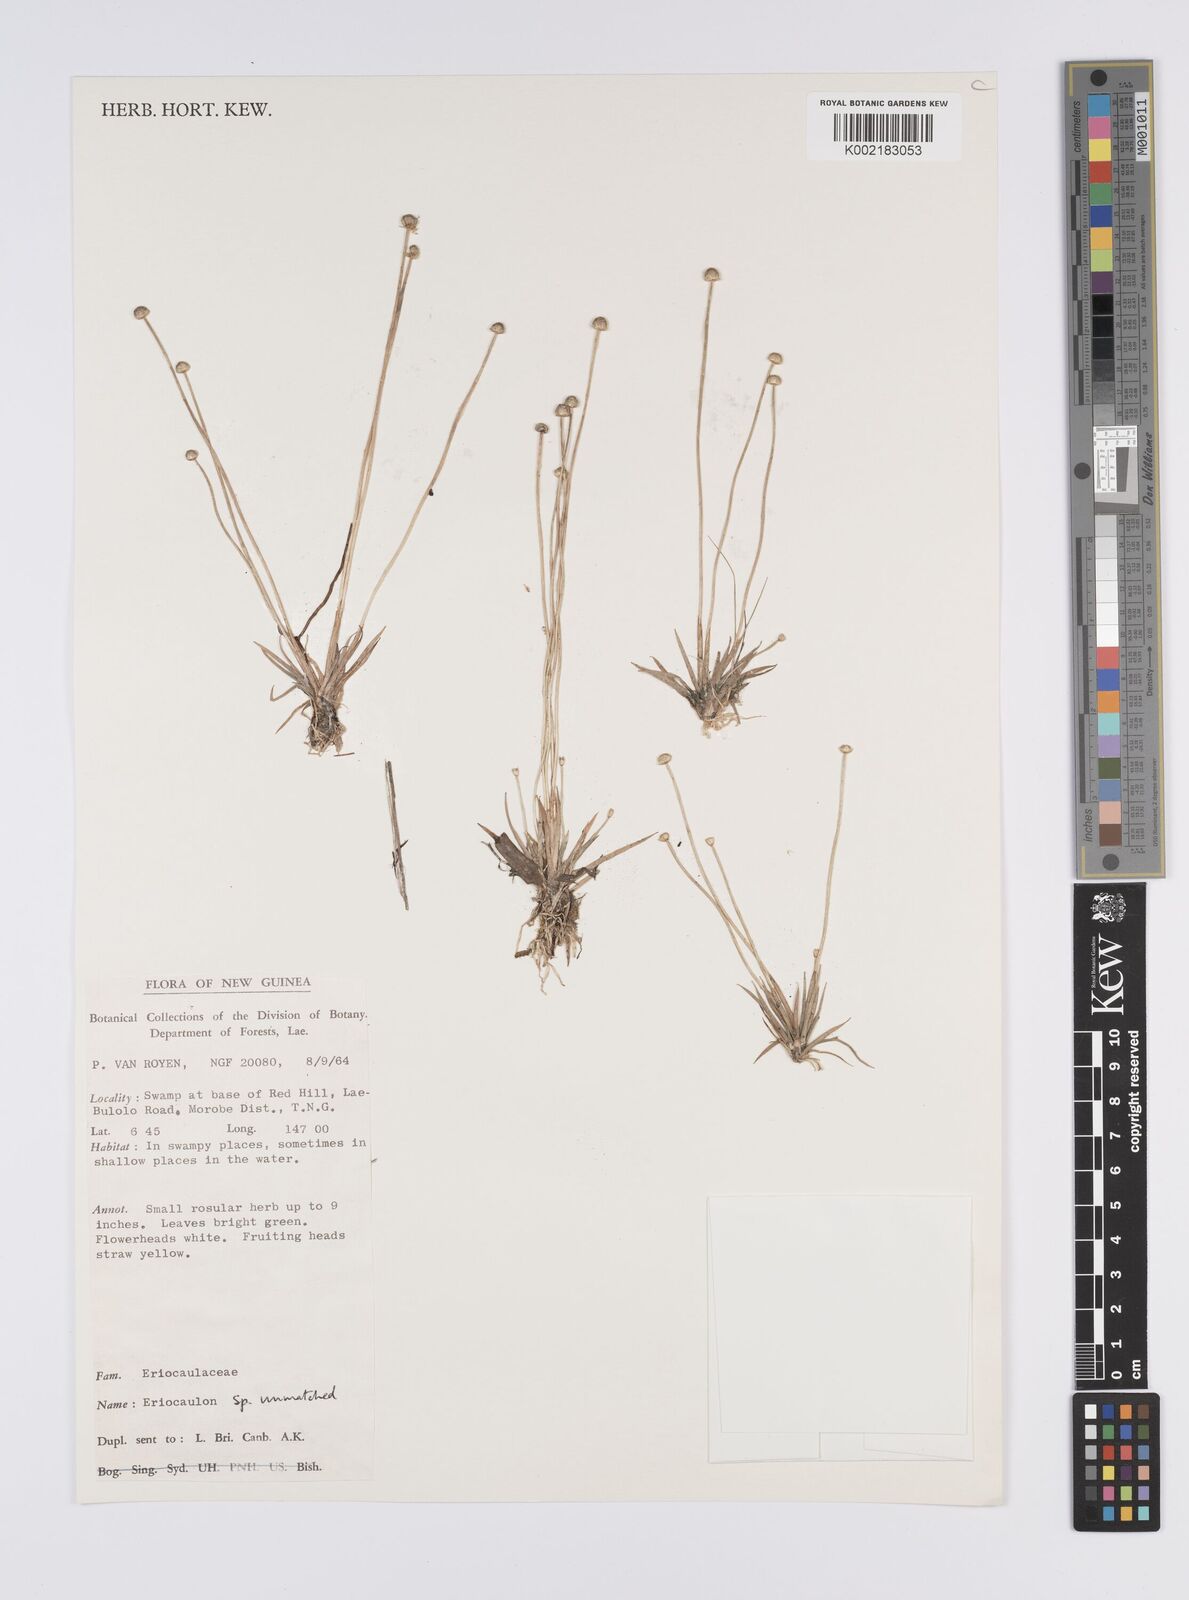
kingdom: Plantae
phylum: Tracheophyta
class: Liliopsida
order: Poales
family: Eriocaulaceae
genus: Eriocaulon
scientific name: Eriocaulon
